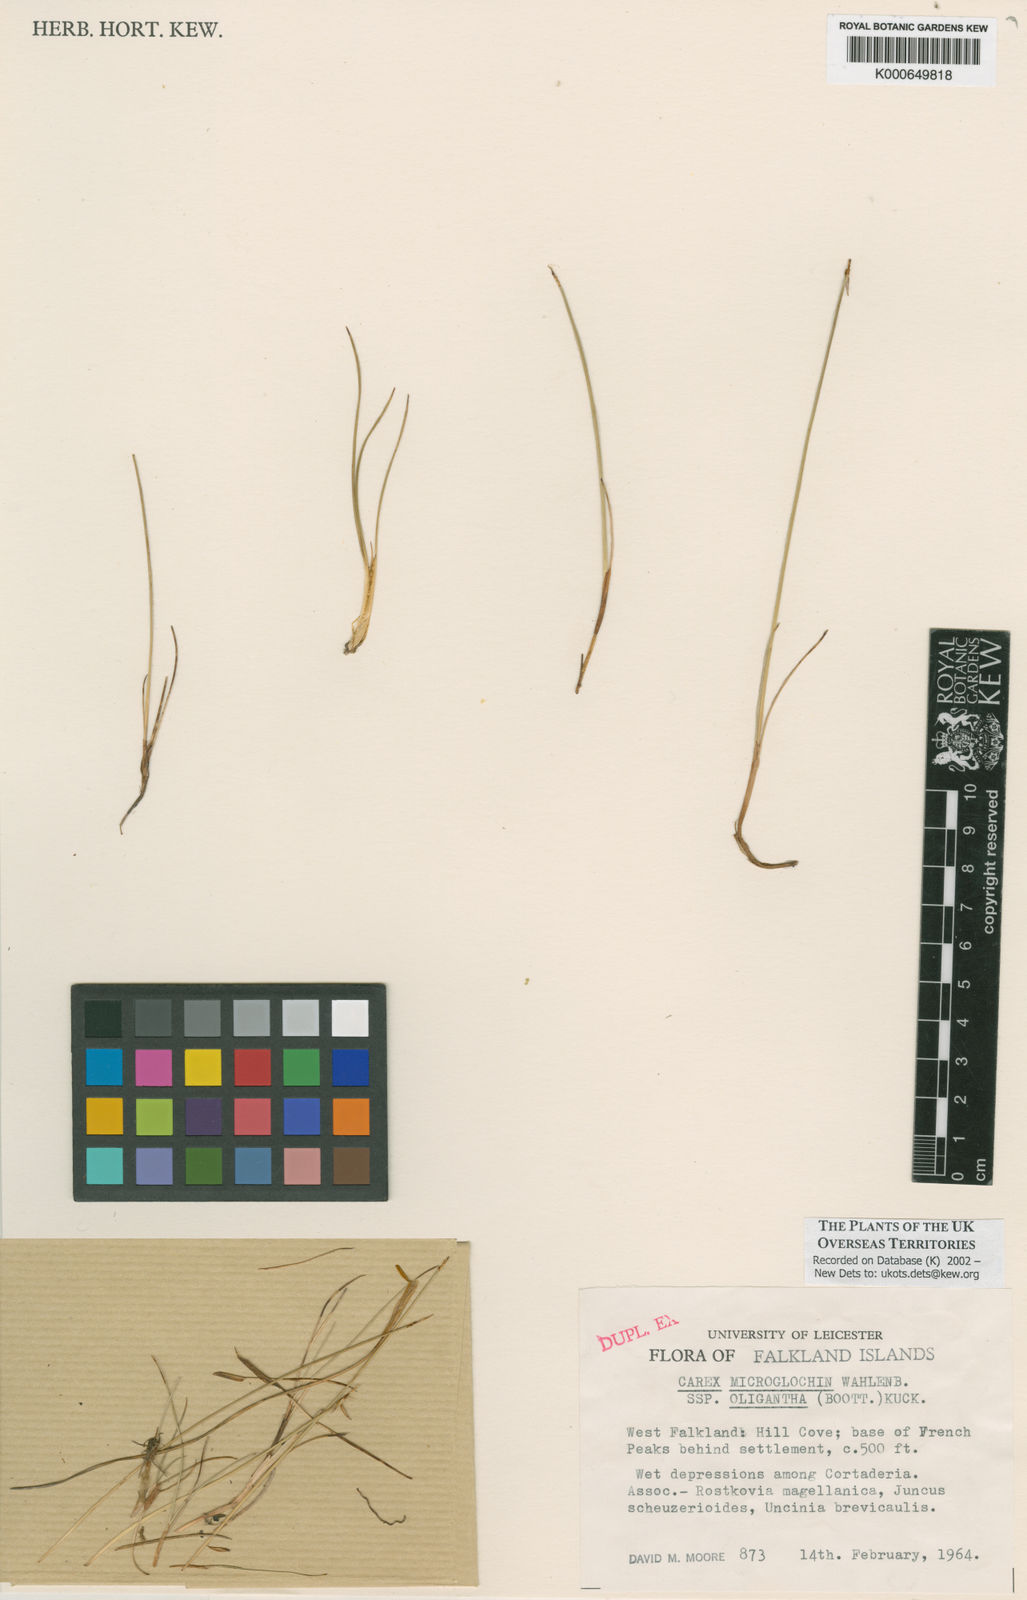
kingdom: Plantae
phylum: Tracheophyta
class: Liliopsida
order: Poales
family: Cyperaceae
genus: Carex
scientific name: Carex camptoglochin
